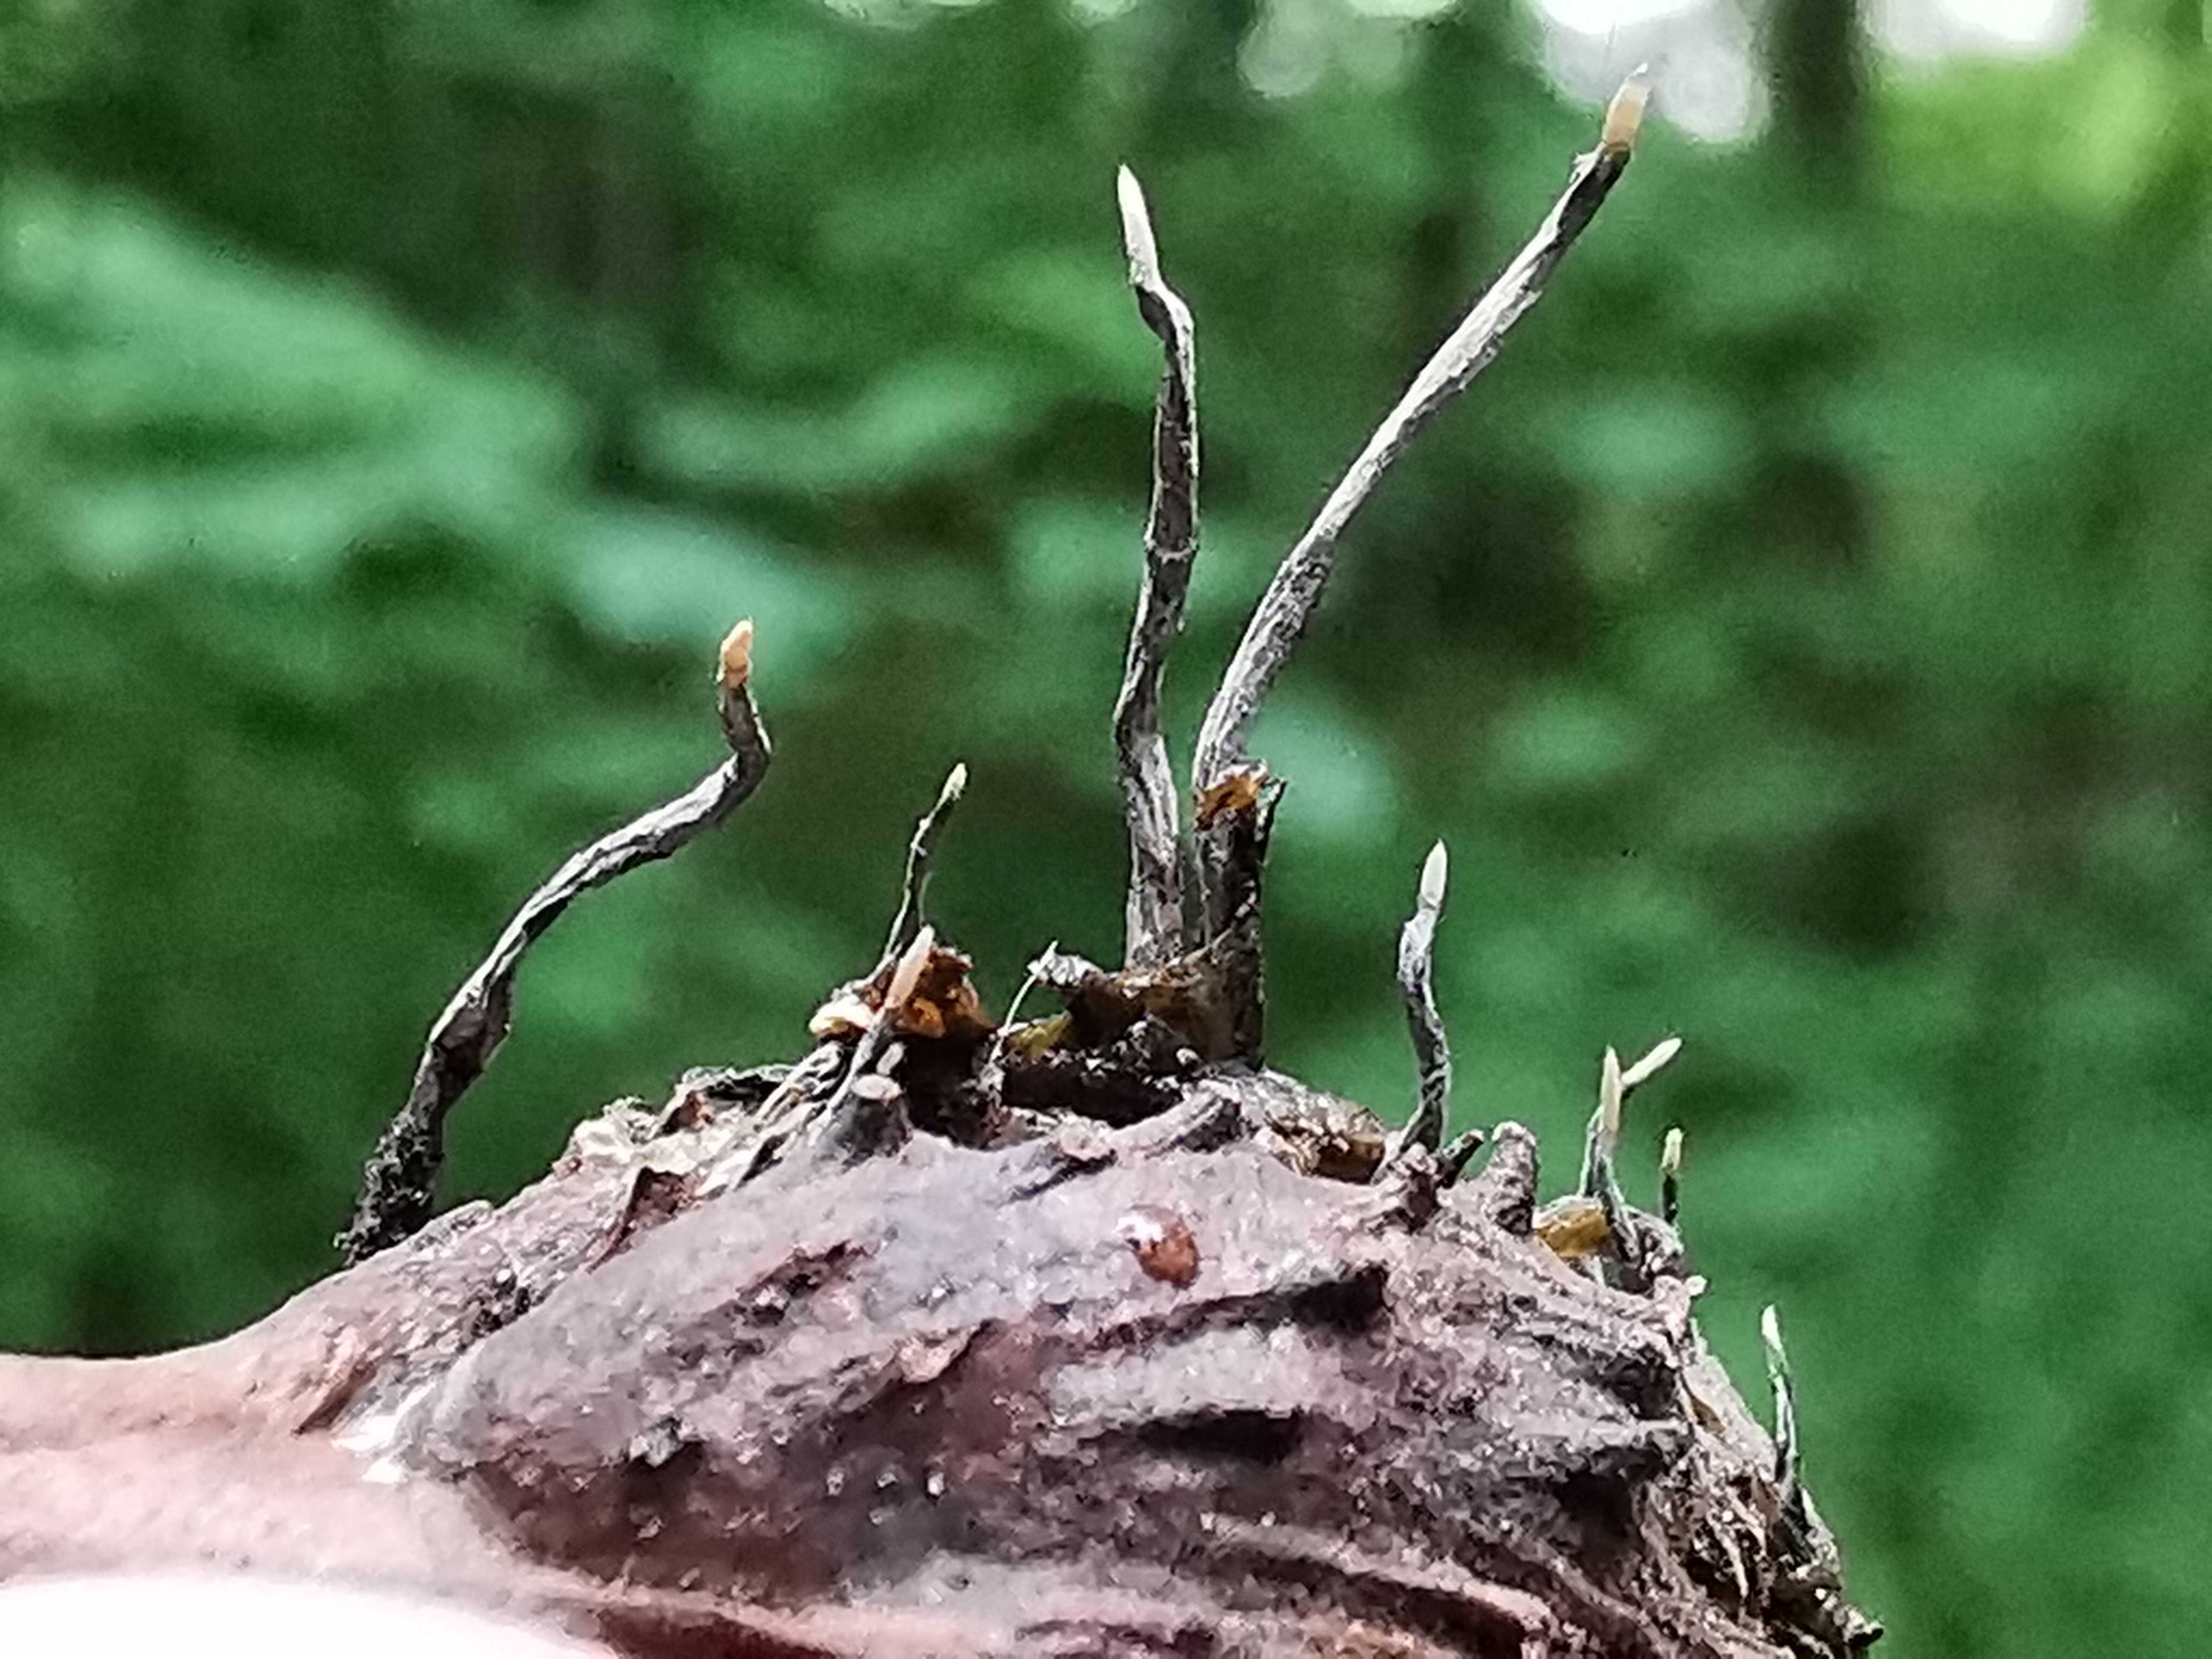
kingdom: Fungi
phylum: Ascomycota
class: Sordariomycetes
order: Xylariales
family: Xylariaceae
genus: Xylaria
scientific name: Xylaria carpophila
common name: bogskål-stødsvamp
